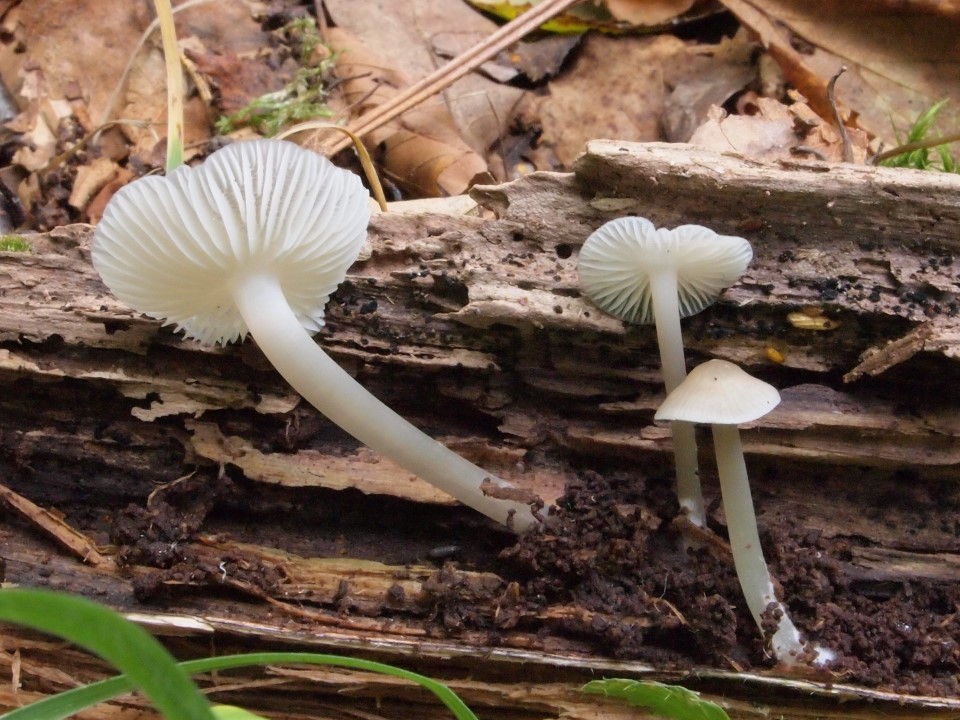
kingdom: Fungi
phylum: Basidiomycota
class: Agaricomycetes
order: Agaricales
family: Mycenaceae
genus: Mycena
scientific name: Mycena galericulata
